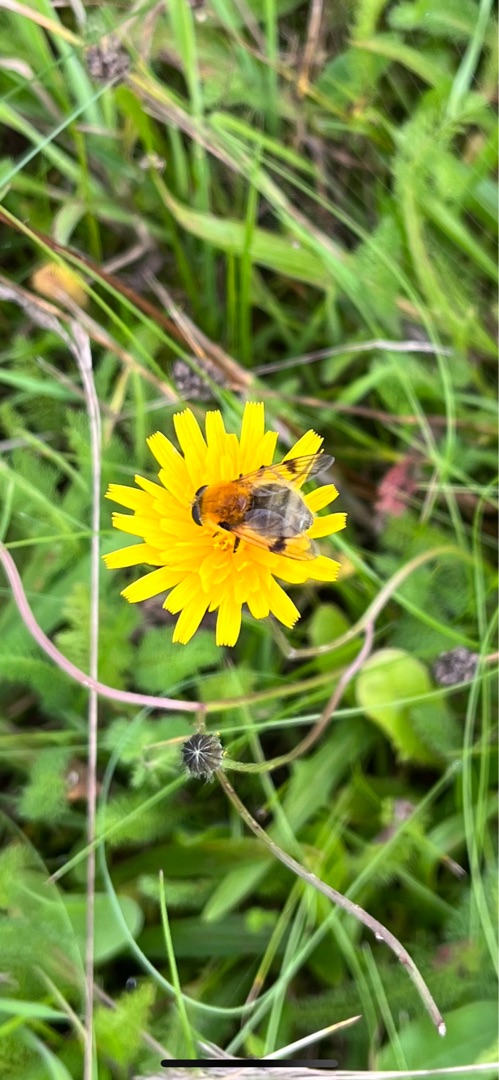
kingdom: Animalia
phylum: Arthropoda
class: Insecta
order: Diptera
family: Syrphidae
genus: Sericomyia
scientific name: Sericomyia superbiens
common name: Brun bjørnesvirreflue
